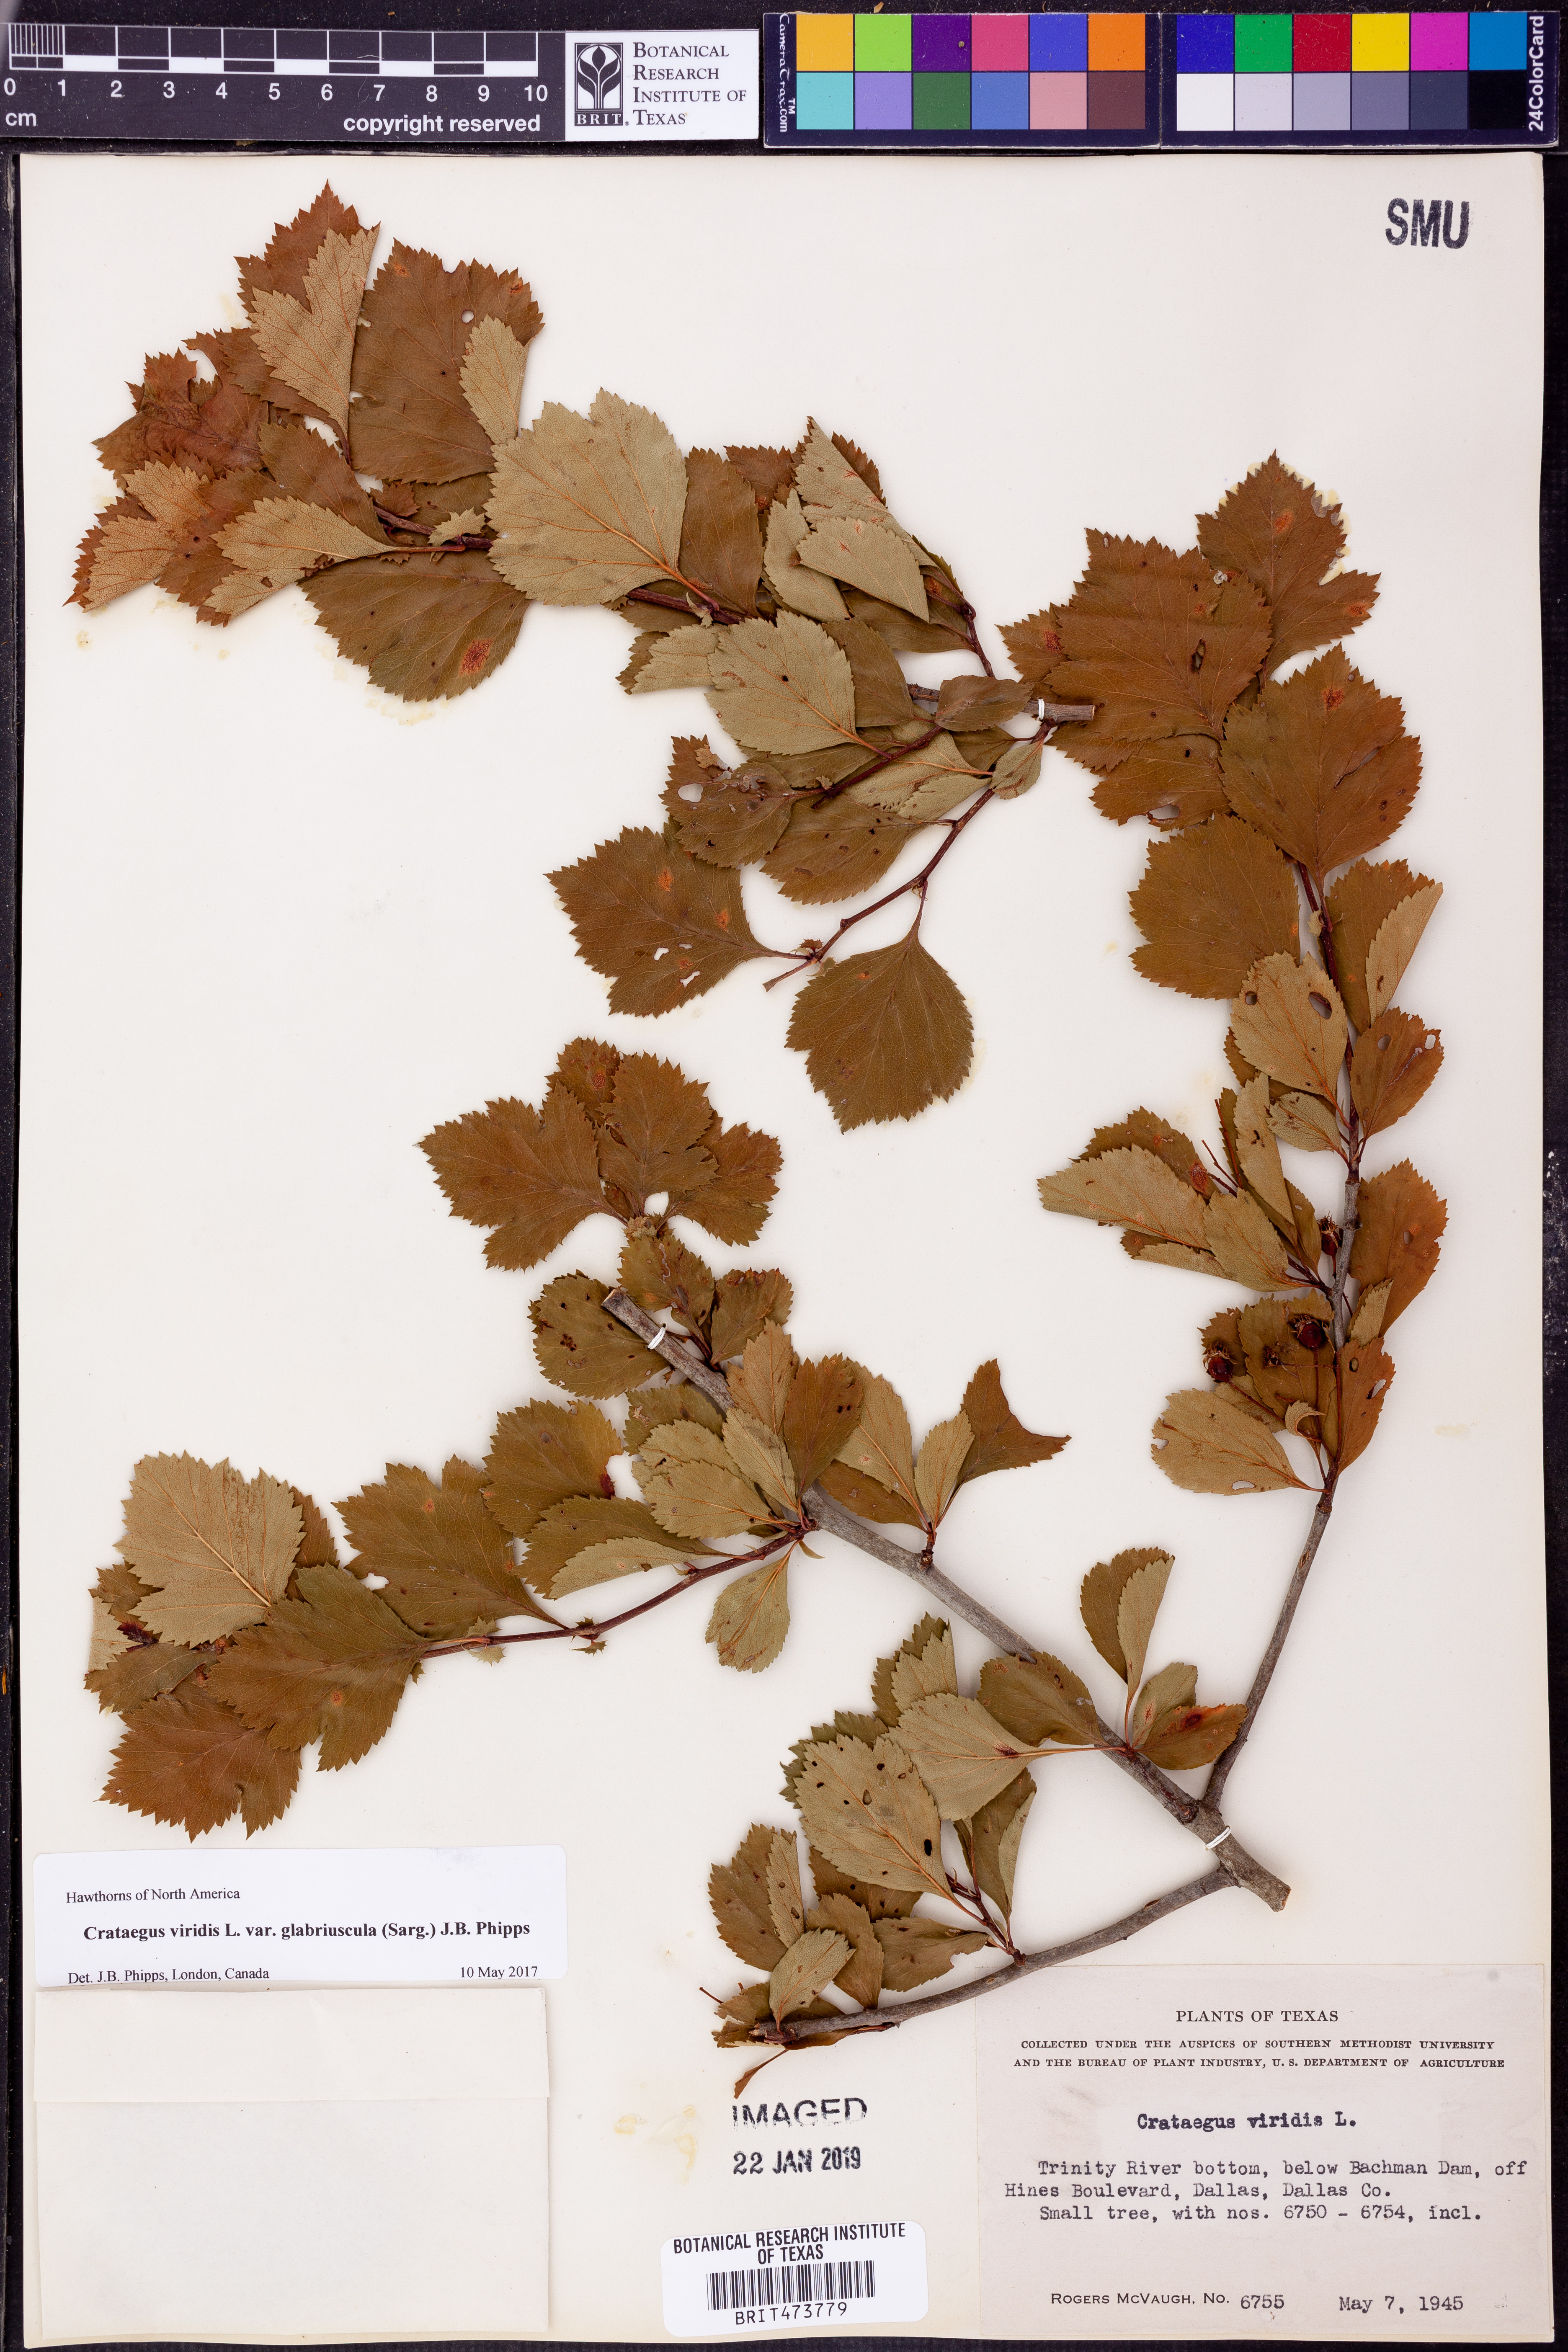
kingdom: Plantae
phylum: Tracheophyta
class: Magnoliopsida
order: Rosales
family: Rosaceae
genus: Crataegus
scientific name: Crataegus viridis
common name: Southernthorn
